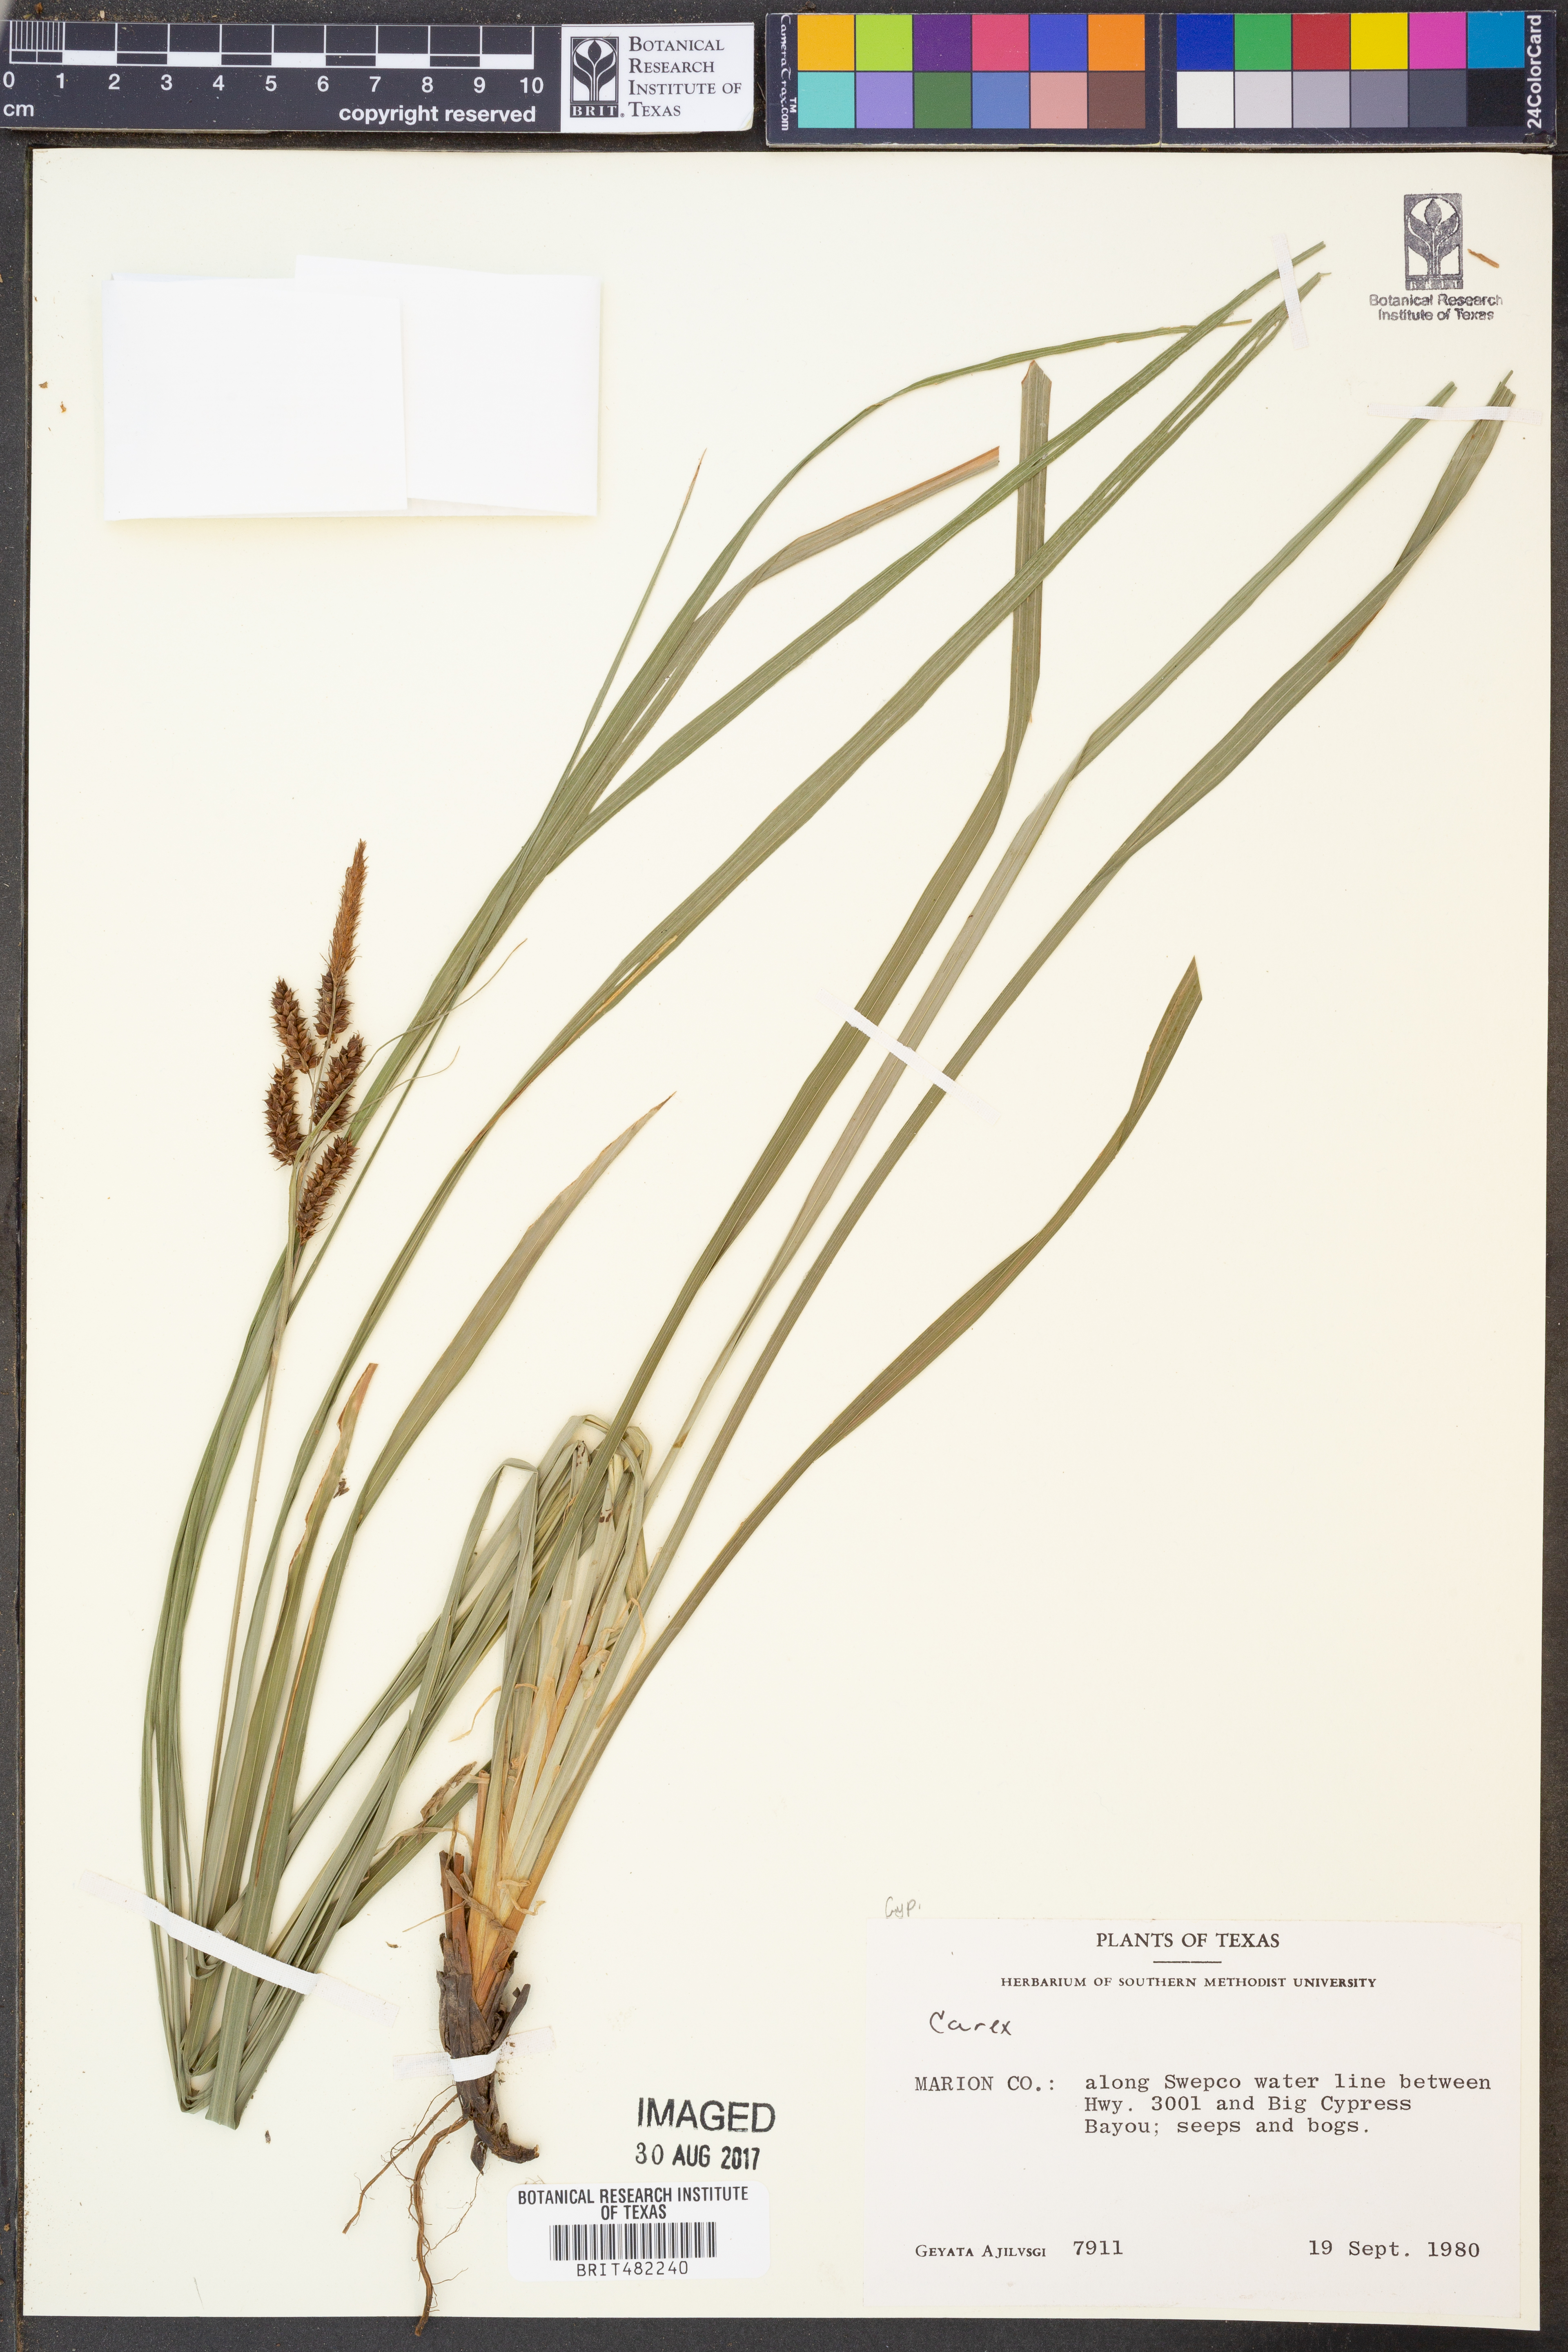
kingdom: Plantae
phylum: Tracheophyta
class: Liliopsida
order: Poales
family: Cyperaceae
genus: Carex
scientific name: Carex
